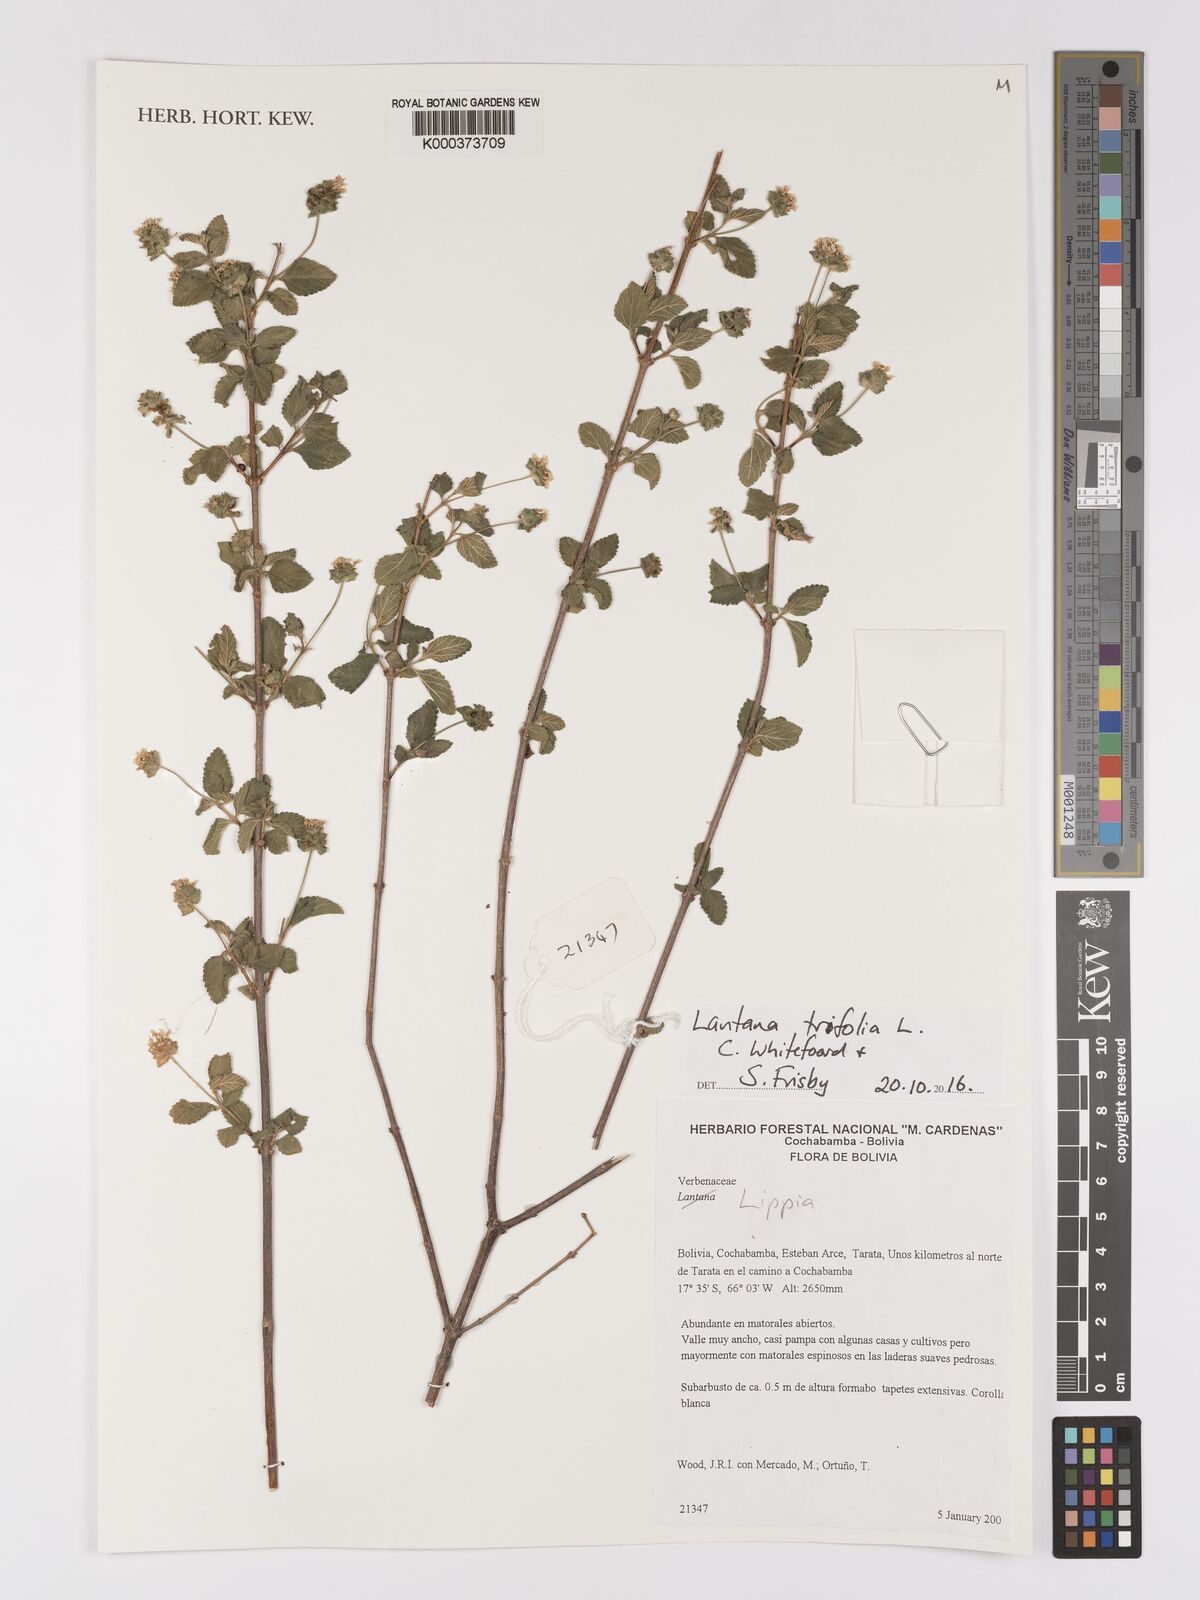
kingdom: Plantae
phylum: Tracheophyta
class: Magnoliopsida
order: Lamiales
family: Verbenaceae
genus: Lantana
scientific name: Lantana trifolia
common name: Sweet-sage
